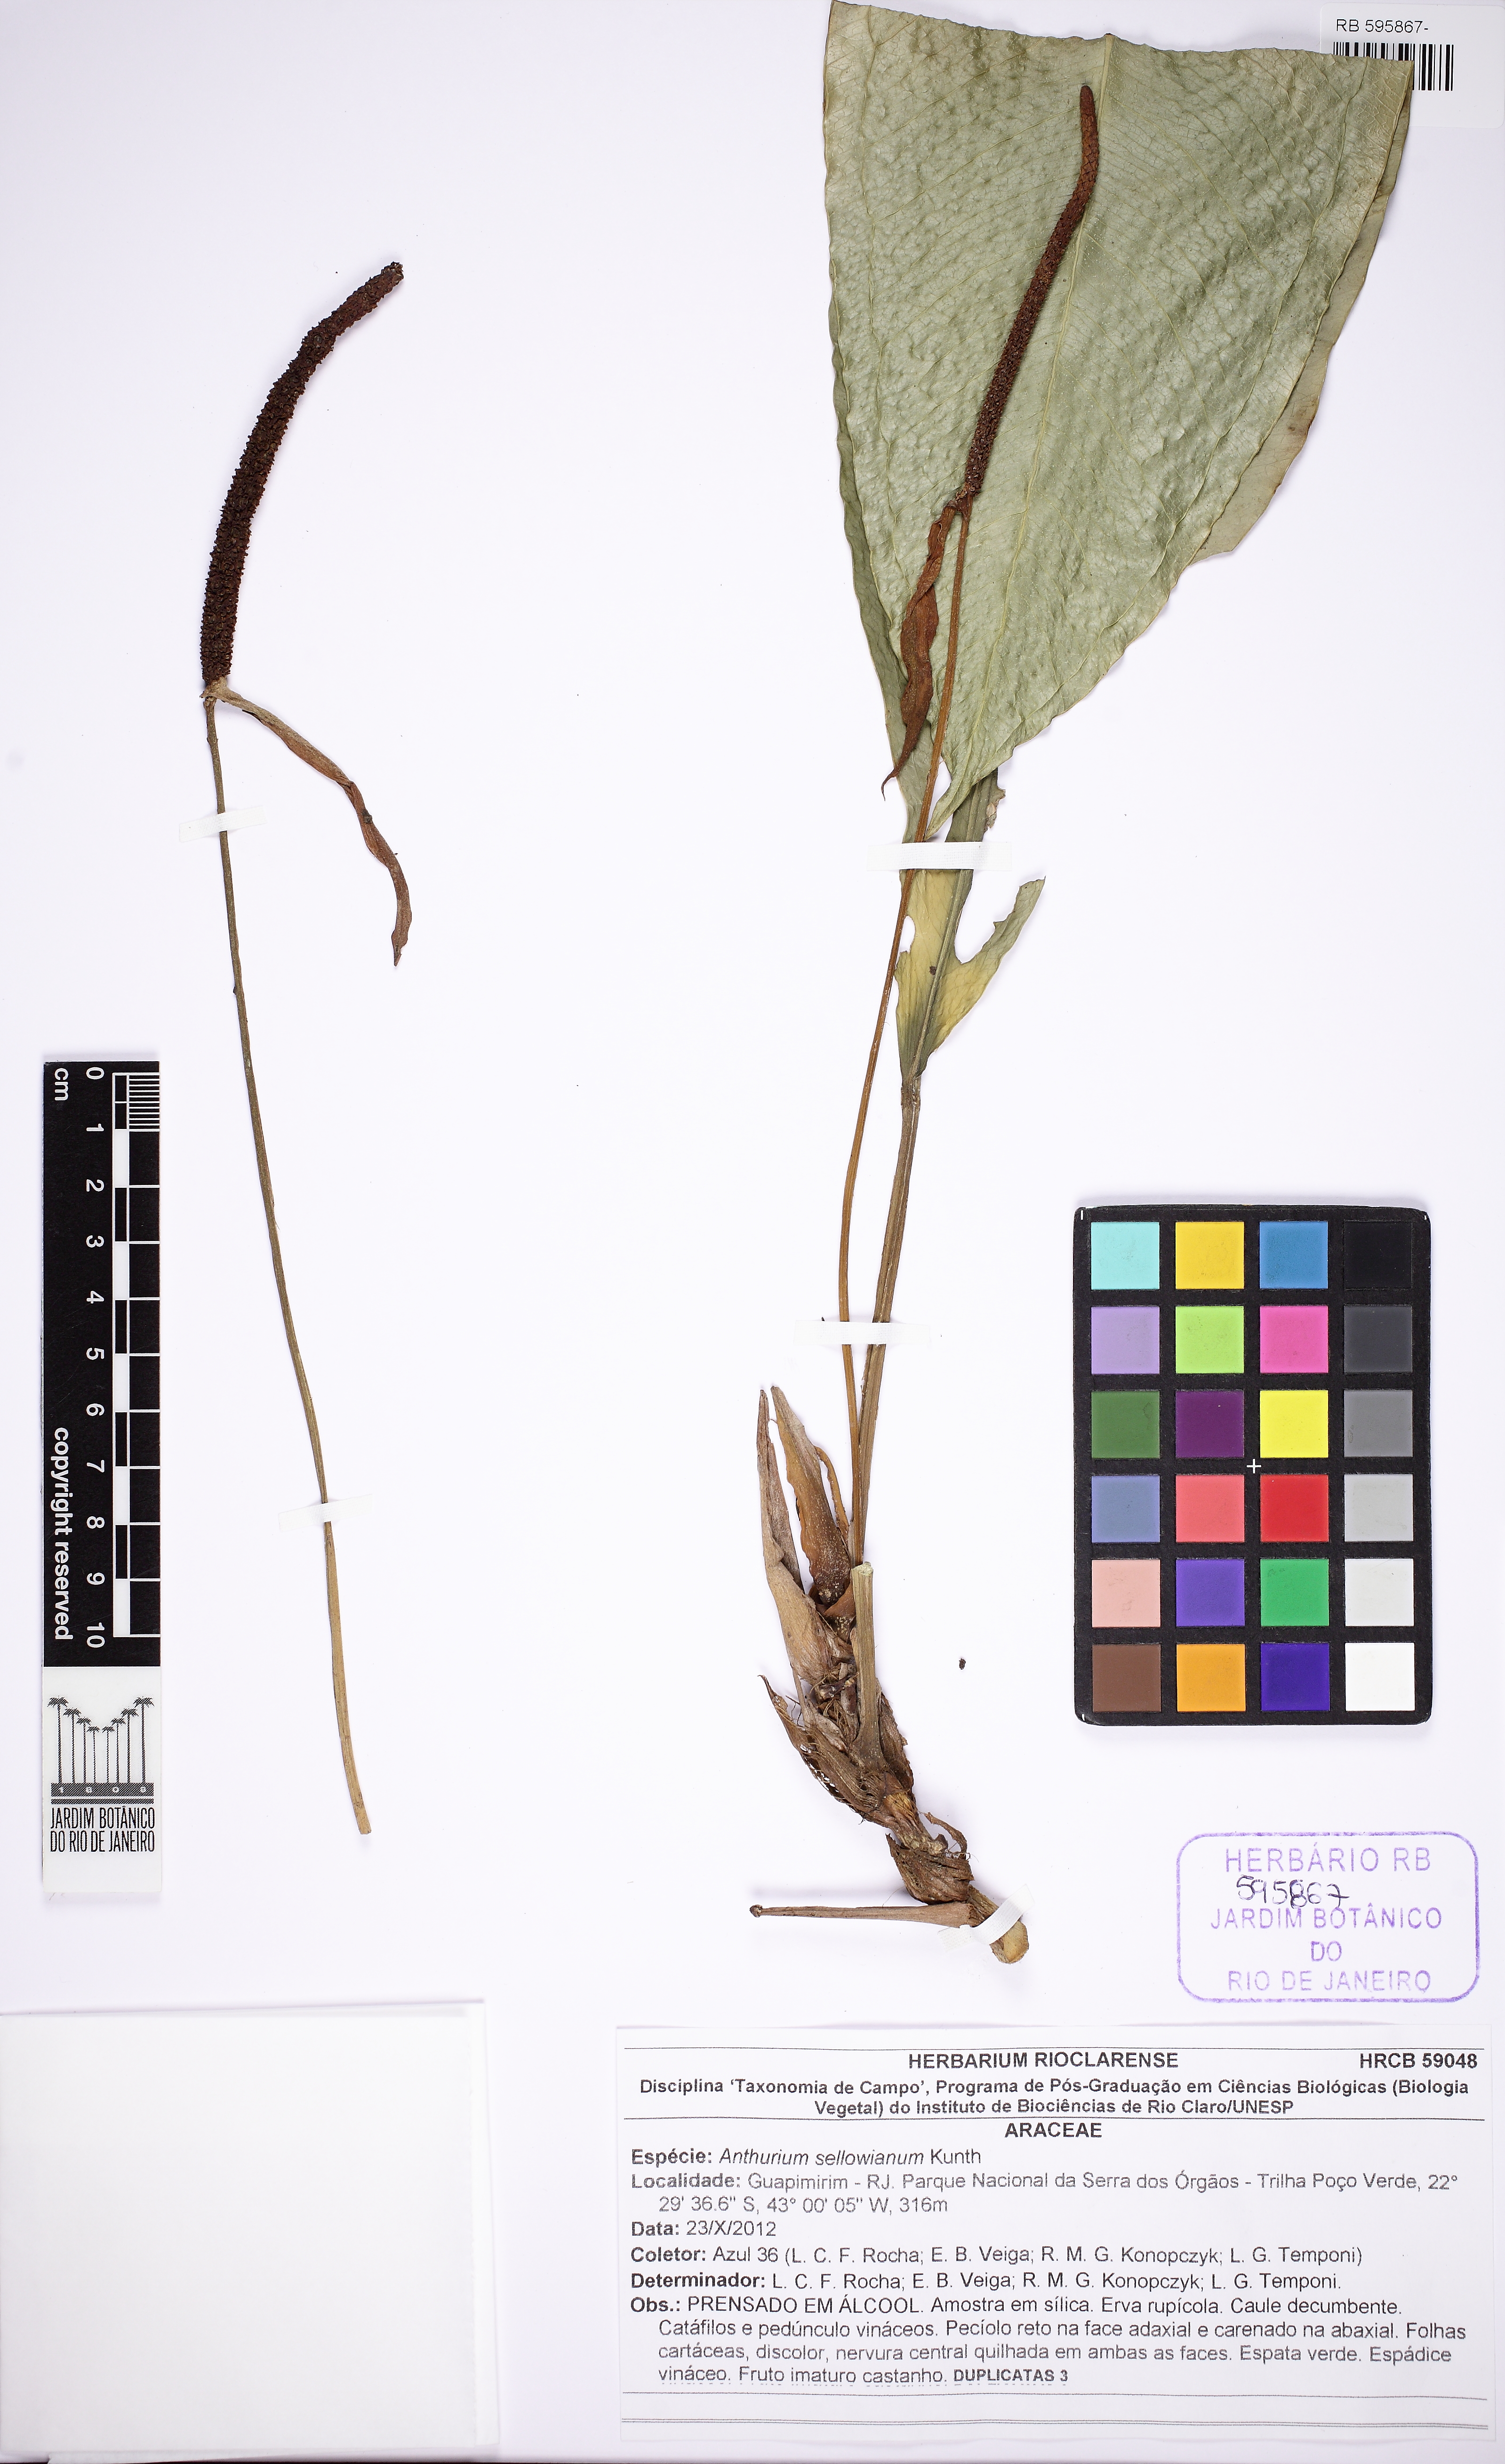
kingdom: Plantae
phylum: Tracheophyta
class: Liliopsida
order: Alismatales
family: Araceae
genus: Anthurium
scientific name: Anthurium intermedium
